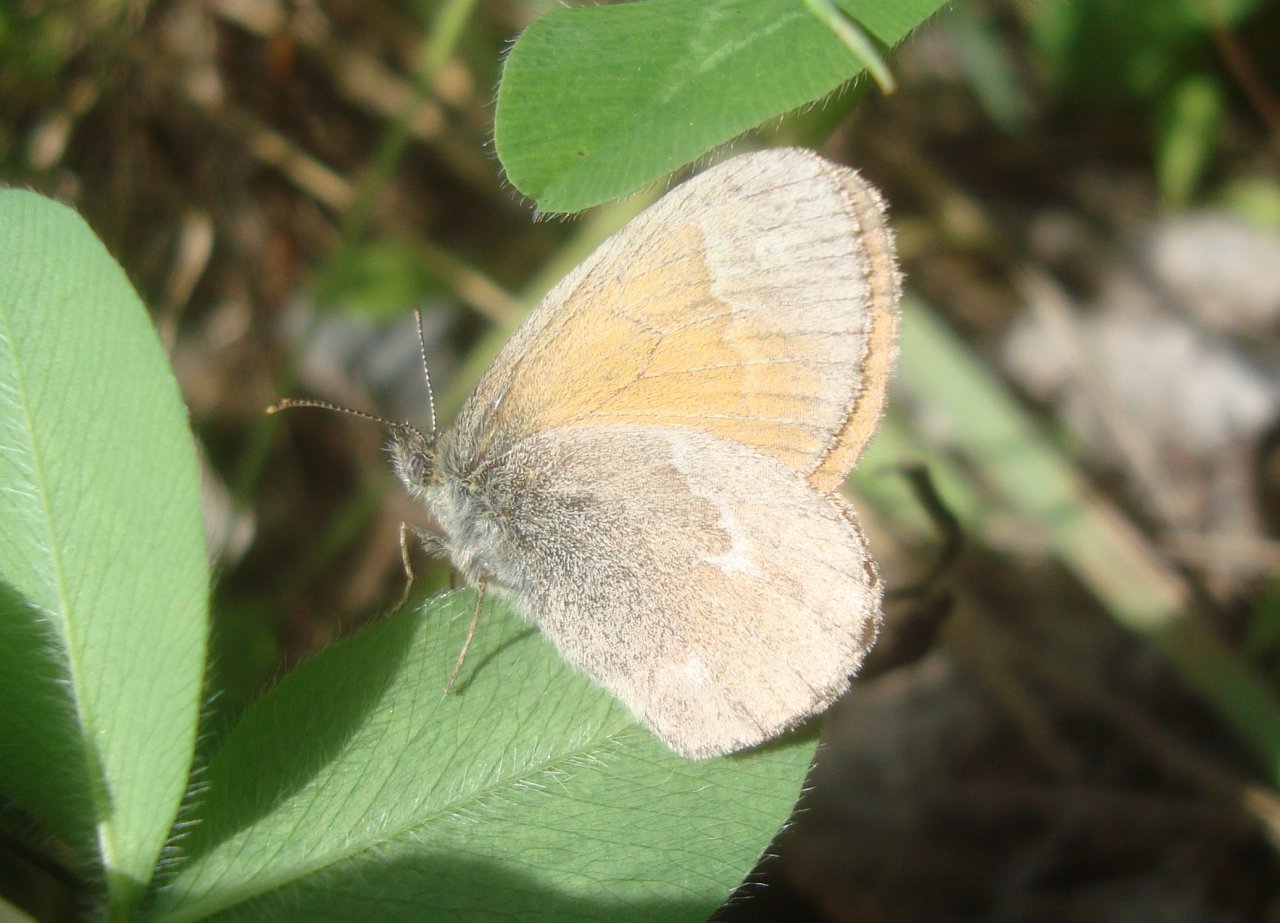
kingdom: Animalia
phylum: Arthropoda
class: Insecta
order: Lepidoptera
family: Nymphalidae
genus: Coenonympha
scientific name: Coenonympha tullia
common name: Large Heath
